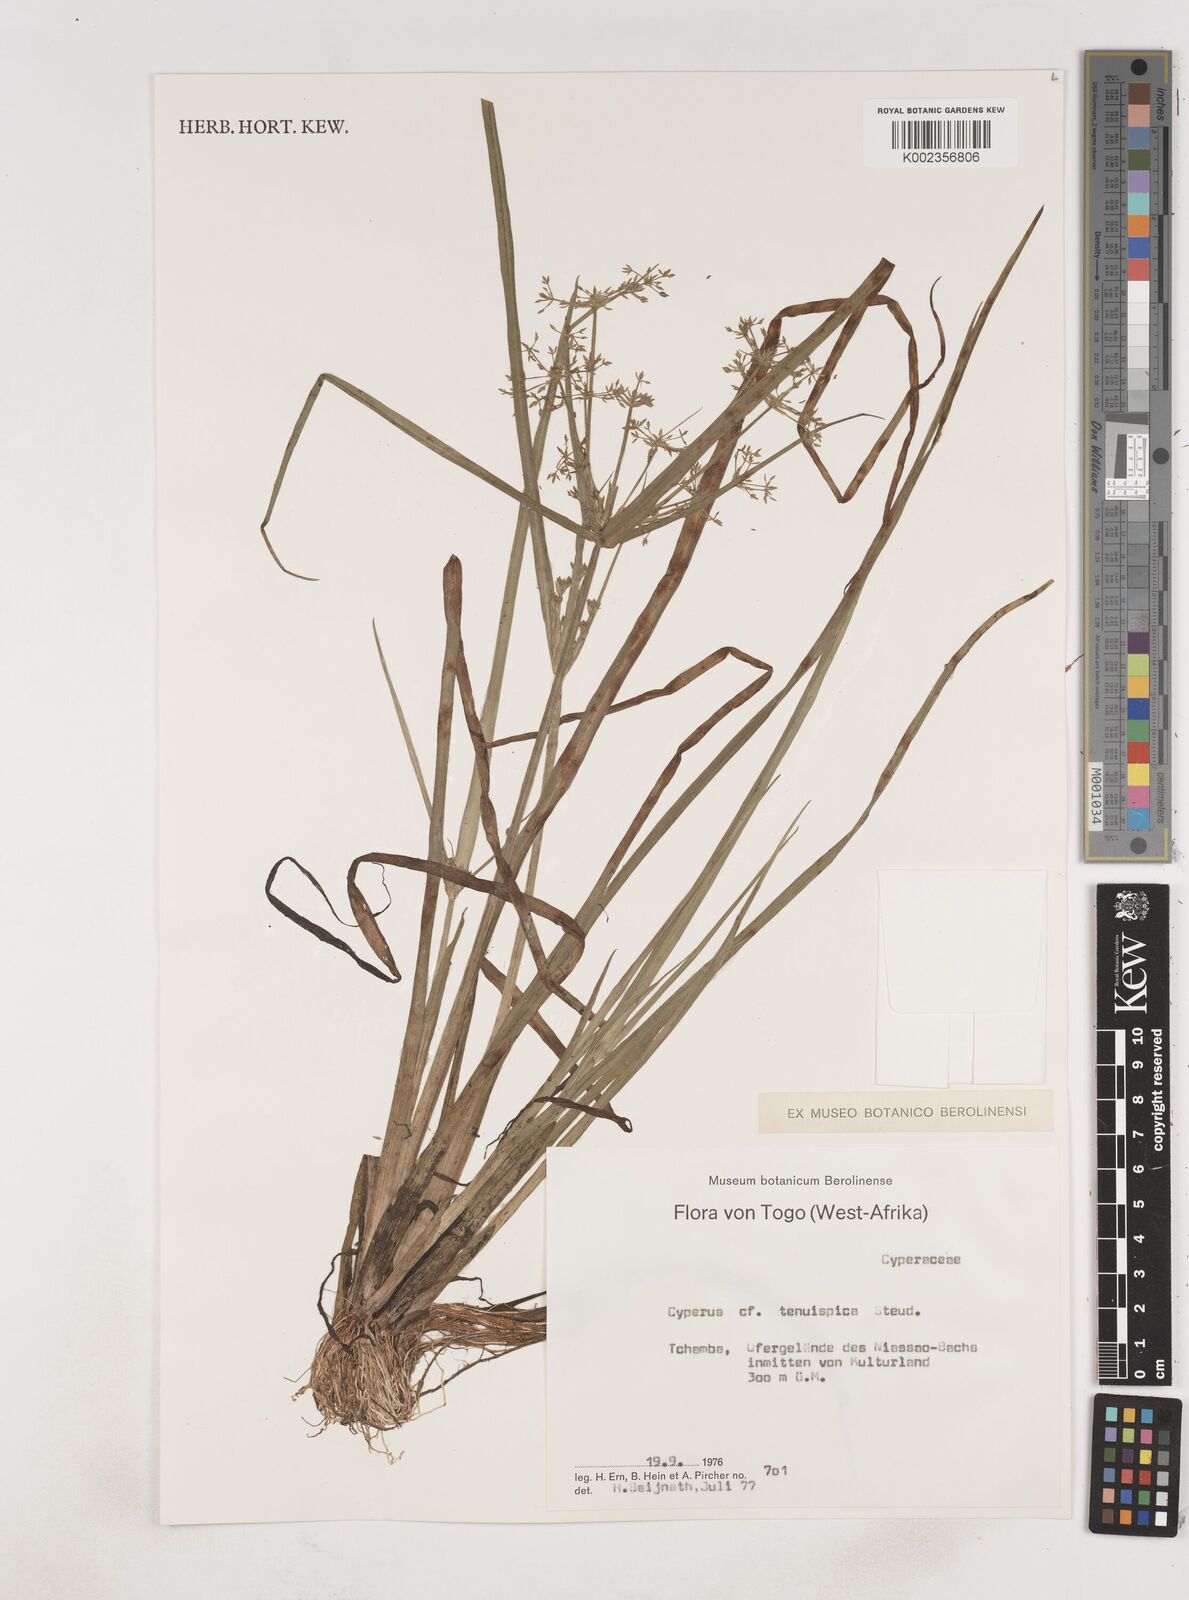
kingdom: Plantae
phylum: Tracheophyta
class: Liliopsida
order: Poales
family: Cyperaceae
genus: Cyperus
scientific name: Cyperus tenuispica
